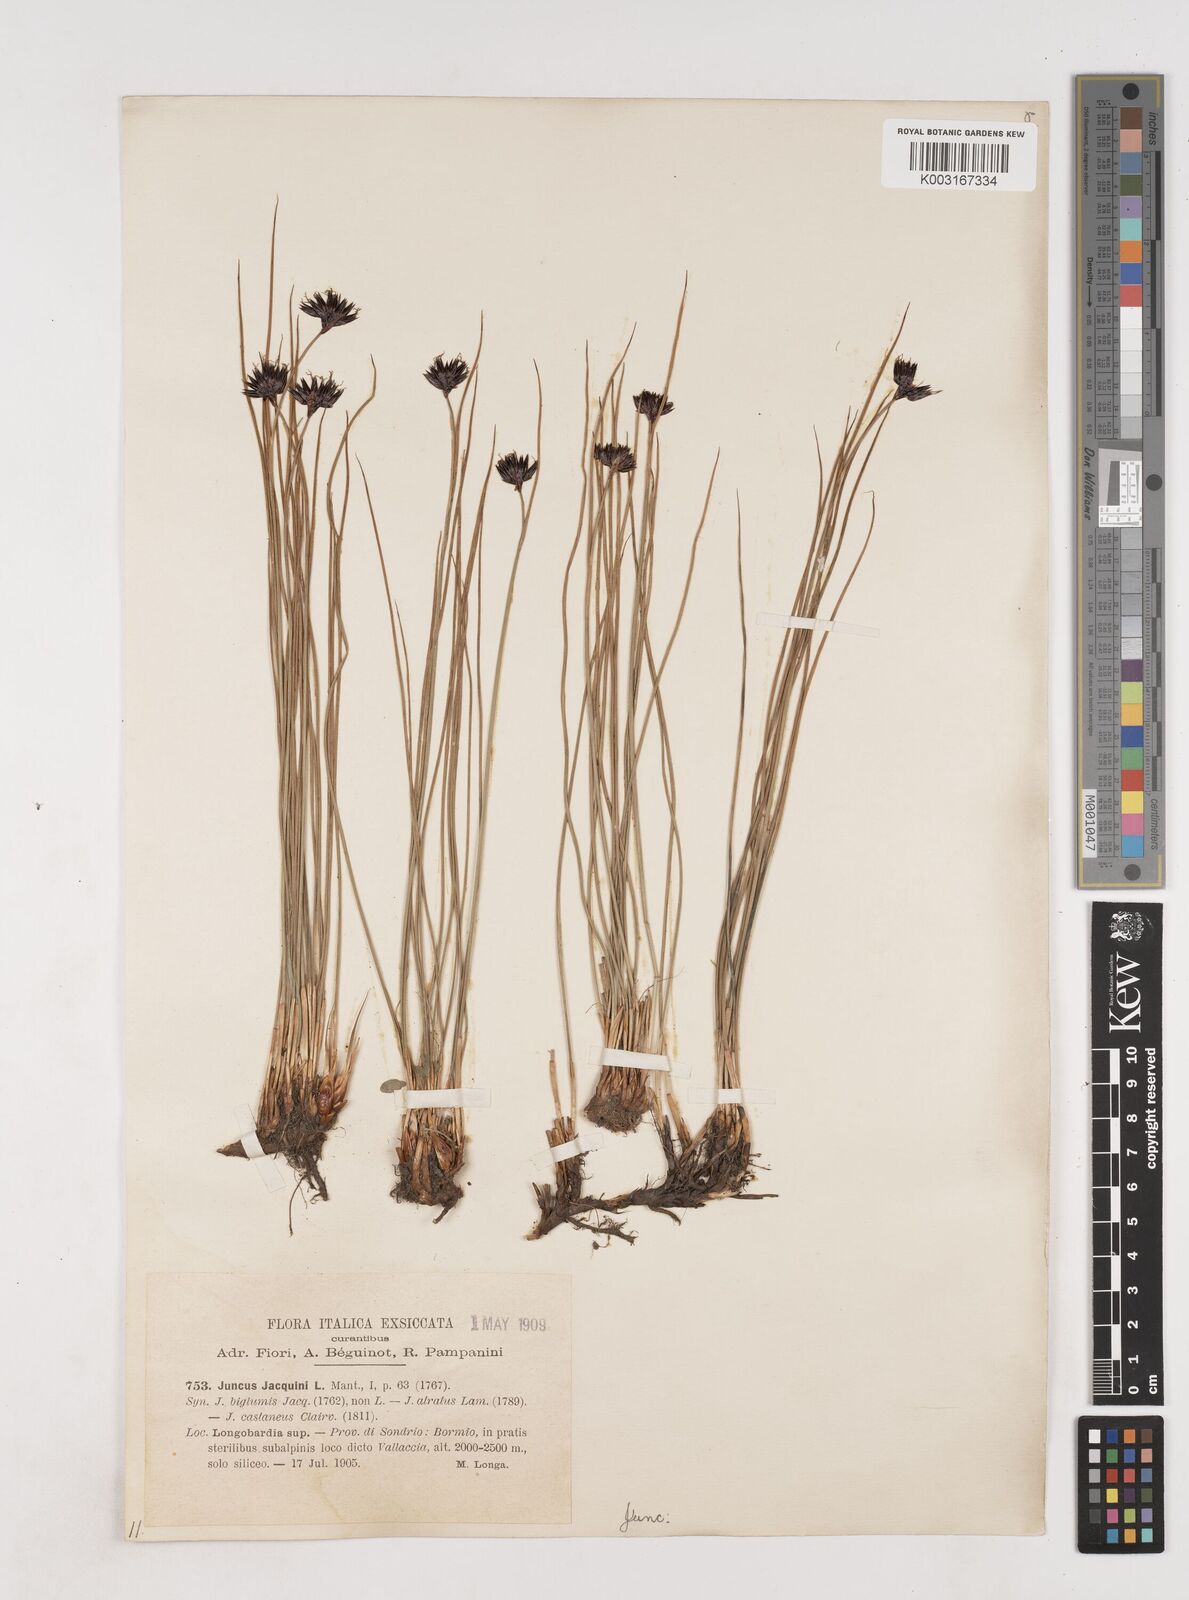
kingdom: Plantae
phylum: Tracheophyta
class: Liliopsida
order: Poales
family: Juncaceae
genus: Juncus
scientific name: Juncus jacquinii
